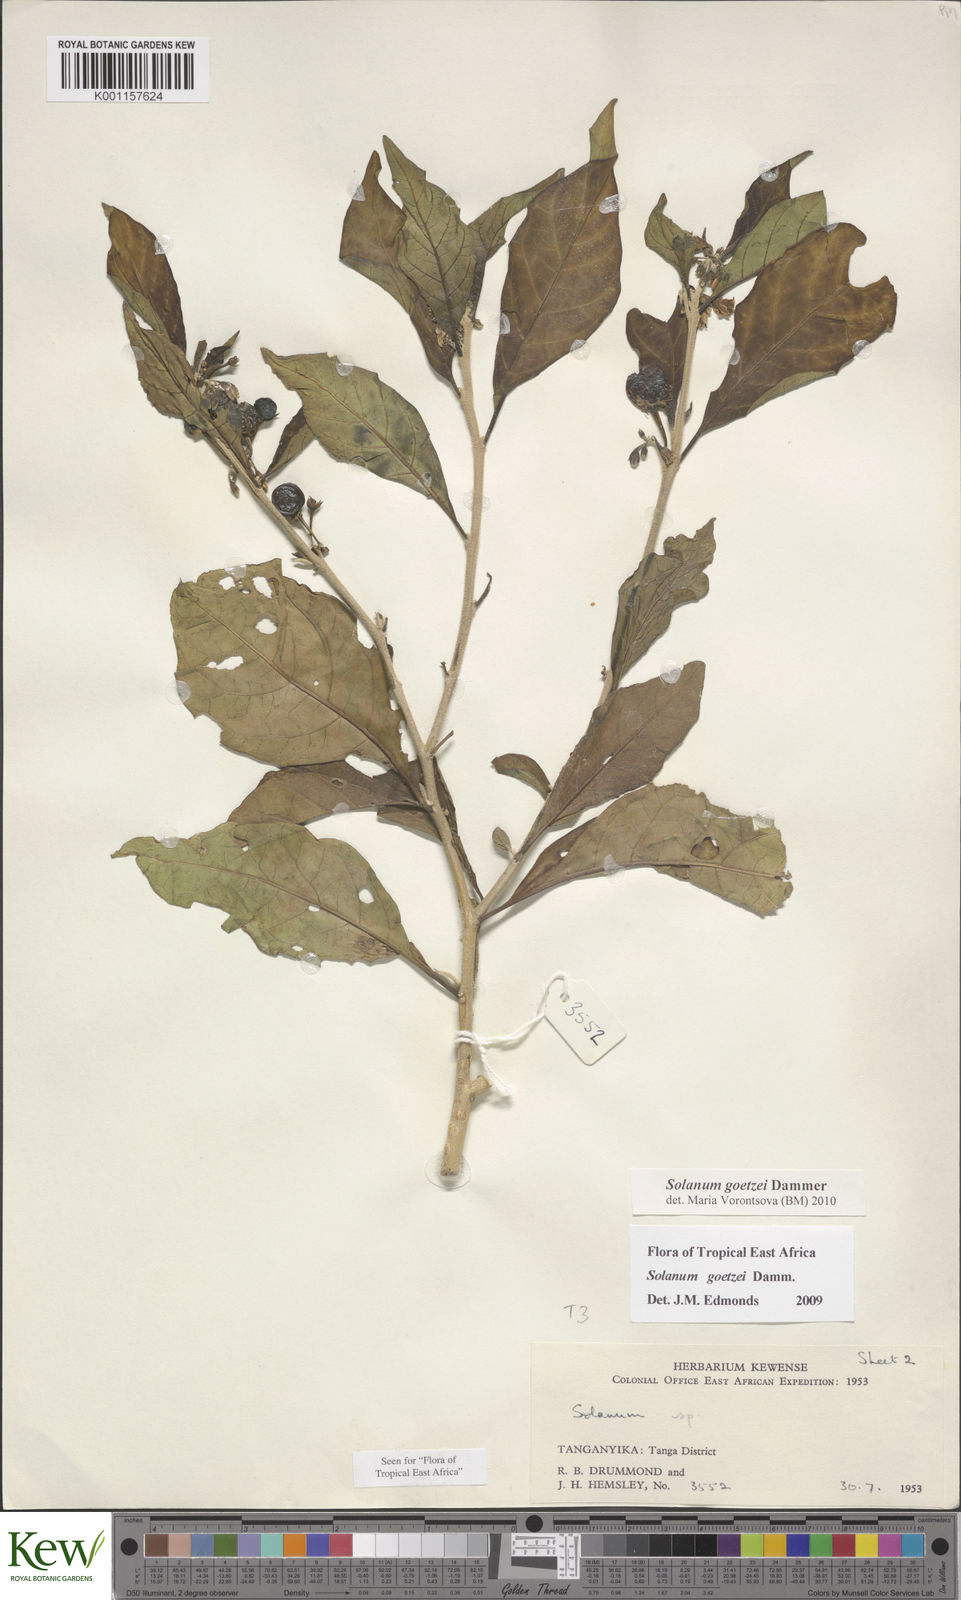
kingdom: Plantae
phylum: Tracheophyta
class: Magnoliopsida
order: Solanales
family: Solanaceae
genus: Solanum
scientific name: Solanum goetzei
